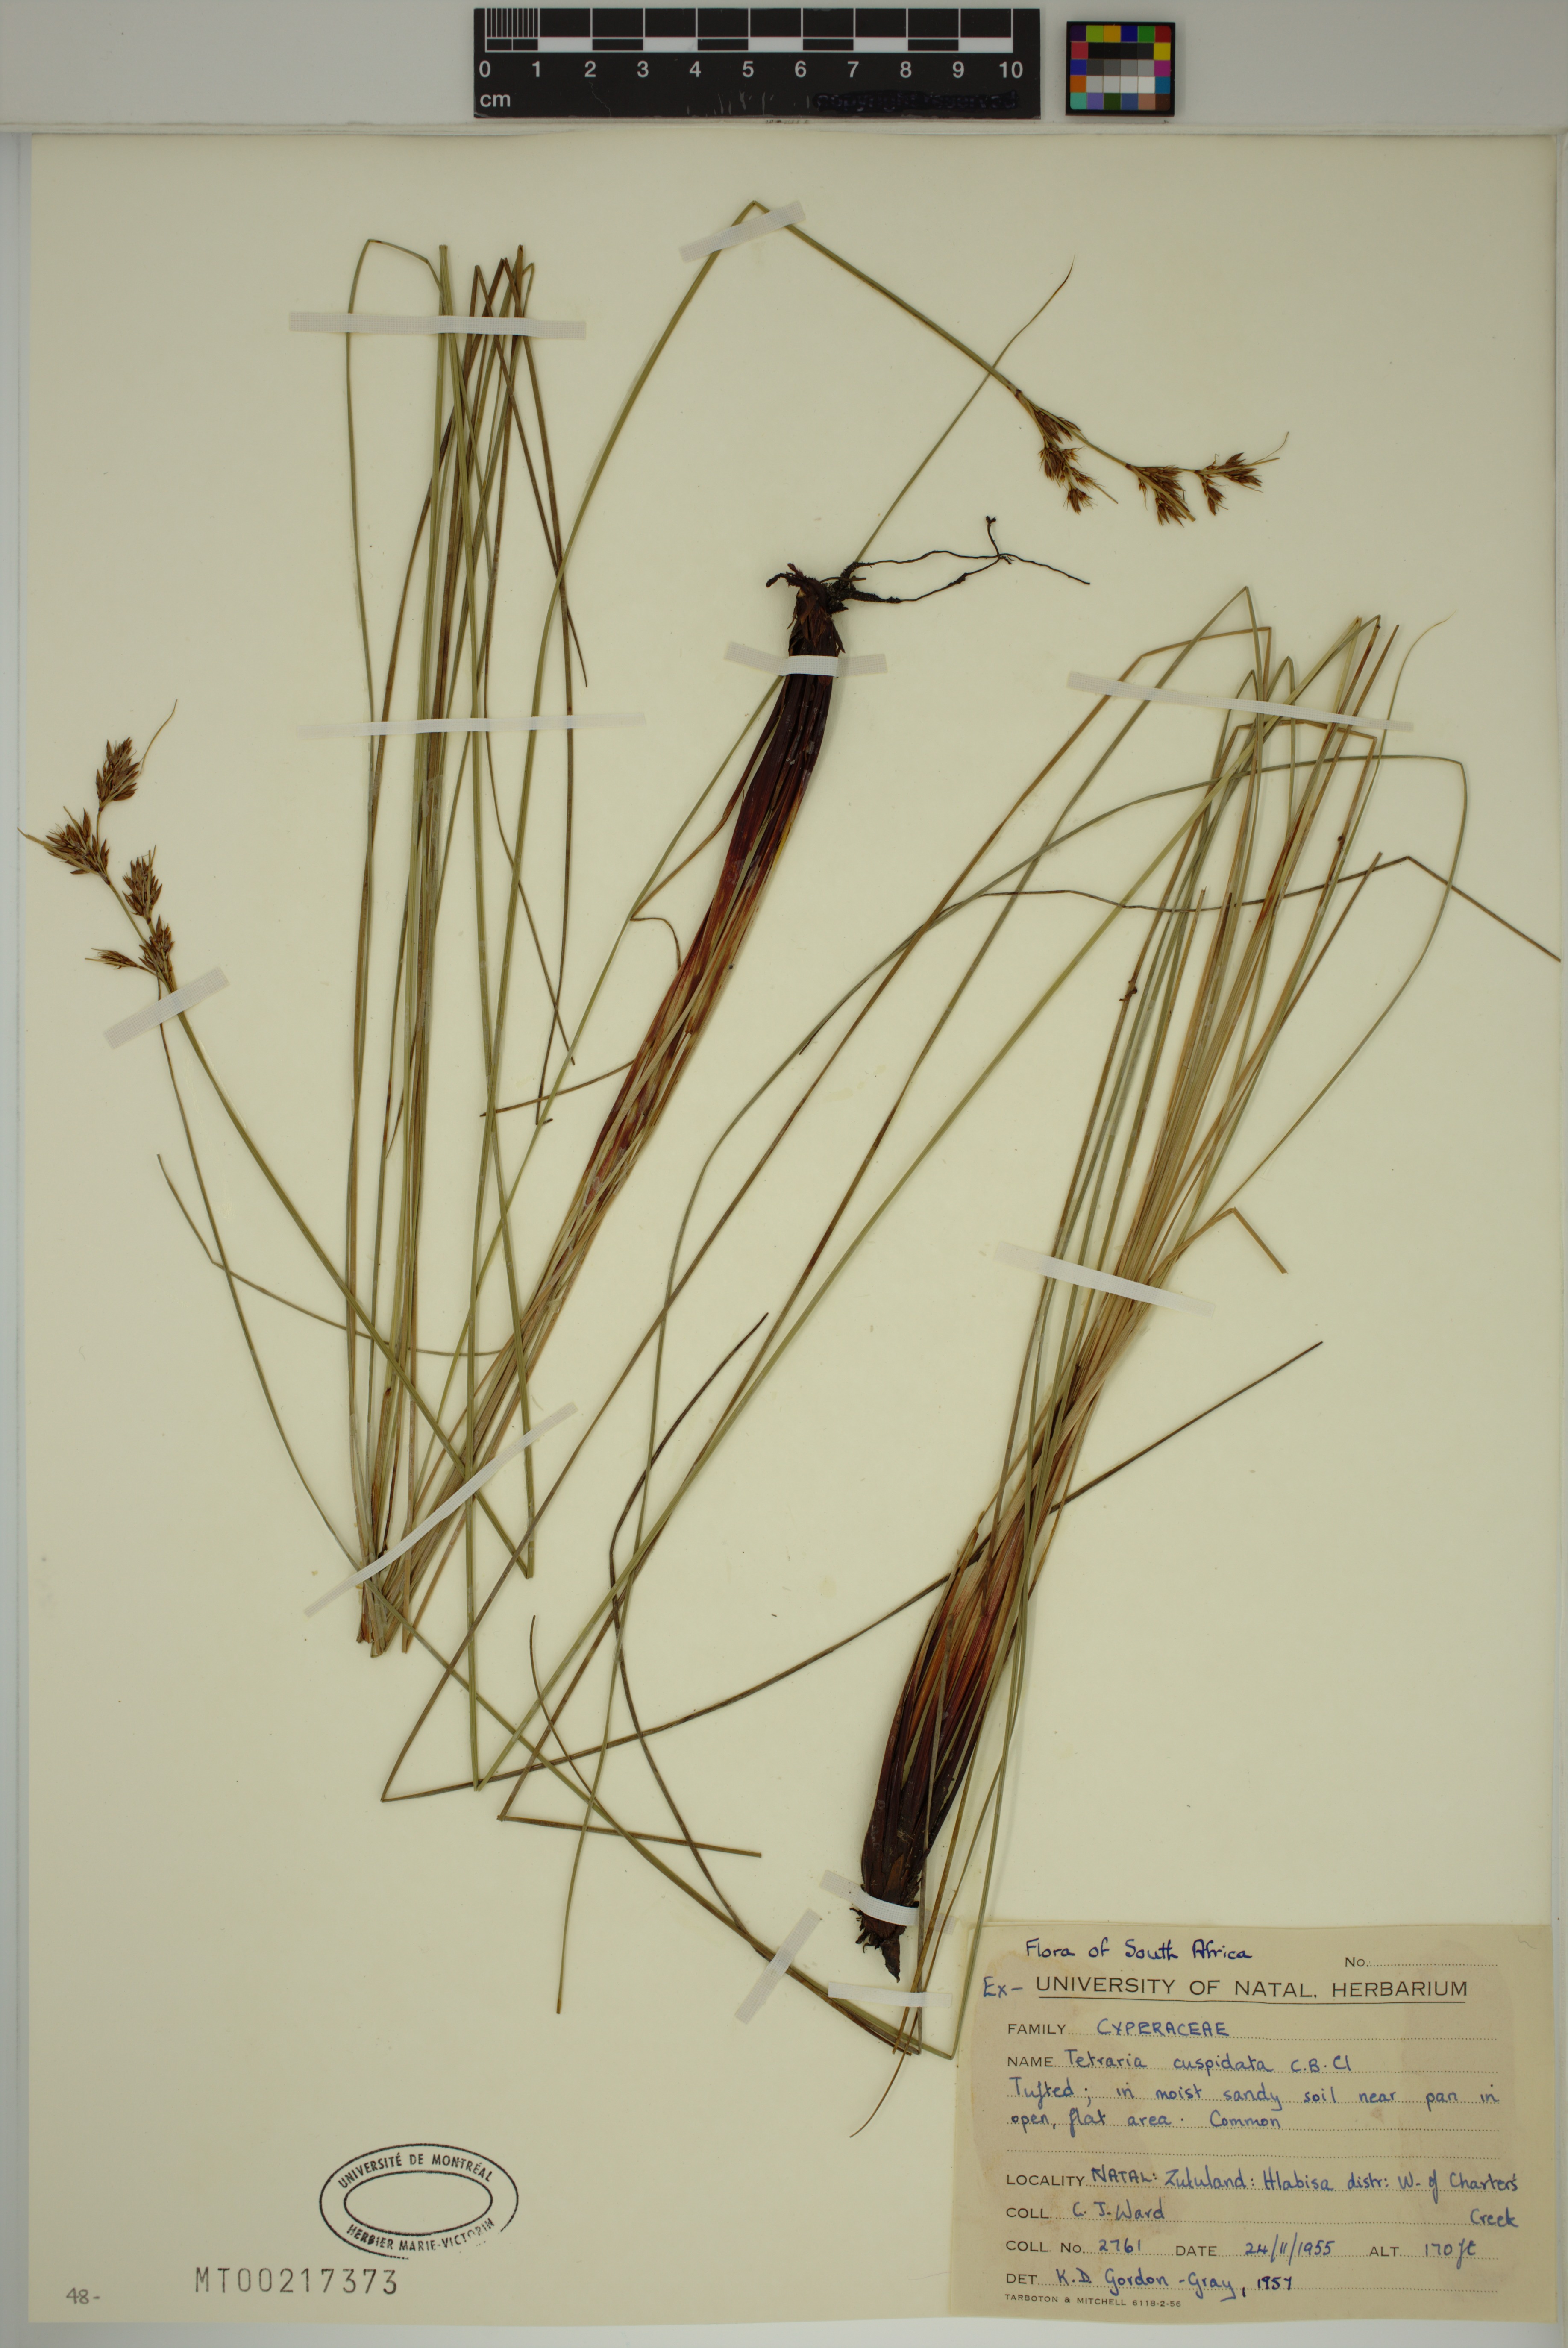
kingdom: Plantae
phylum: Tracheophyta
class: Liliopsida
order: Poales
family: Cyperaceae
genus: Schoenus
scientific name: Schoenus cuspidatus
